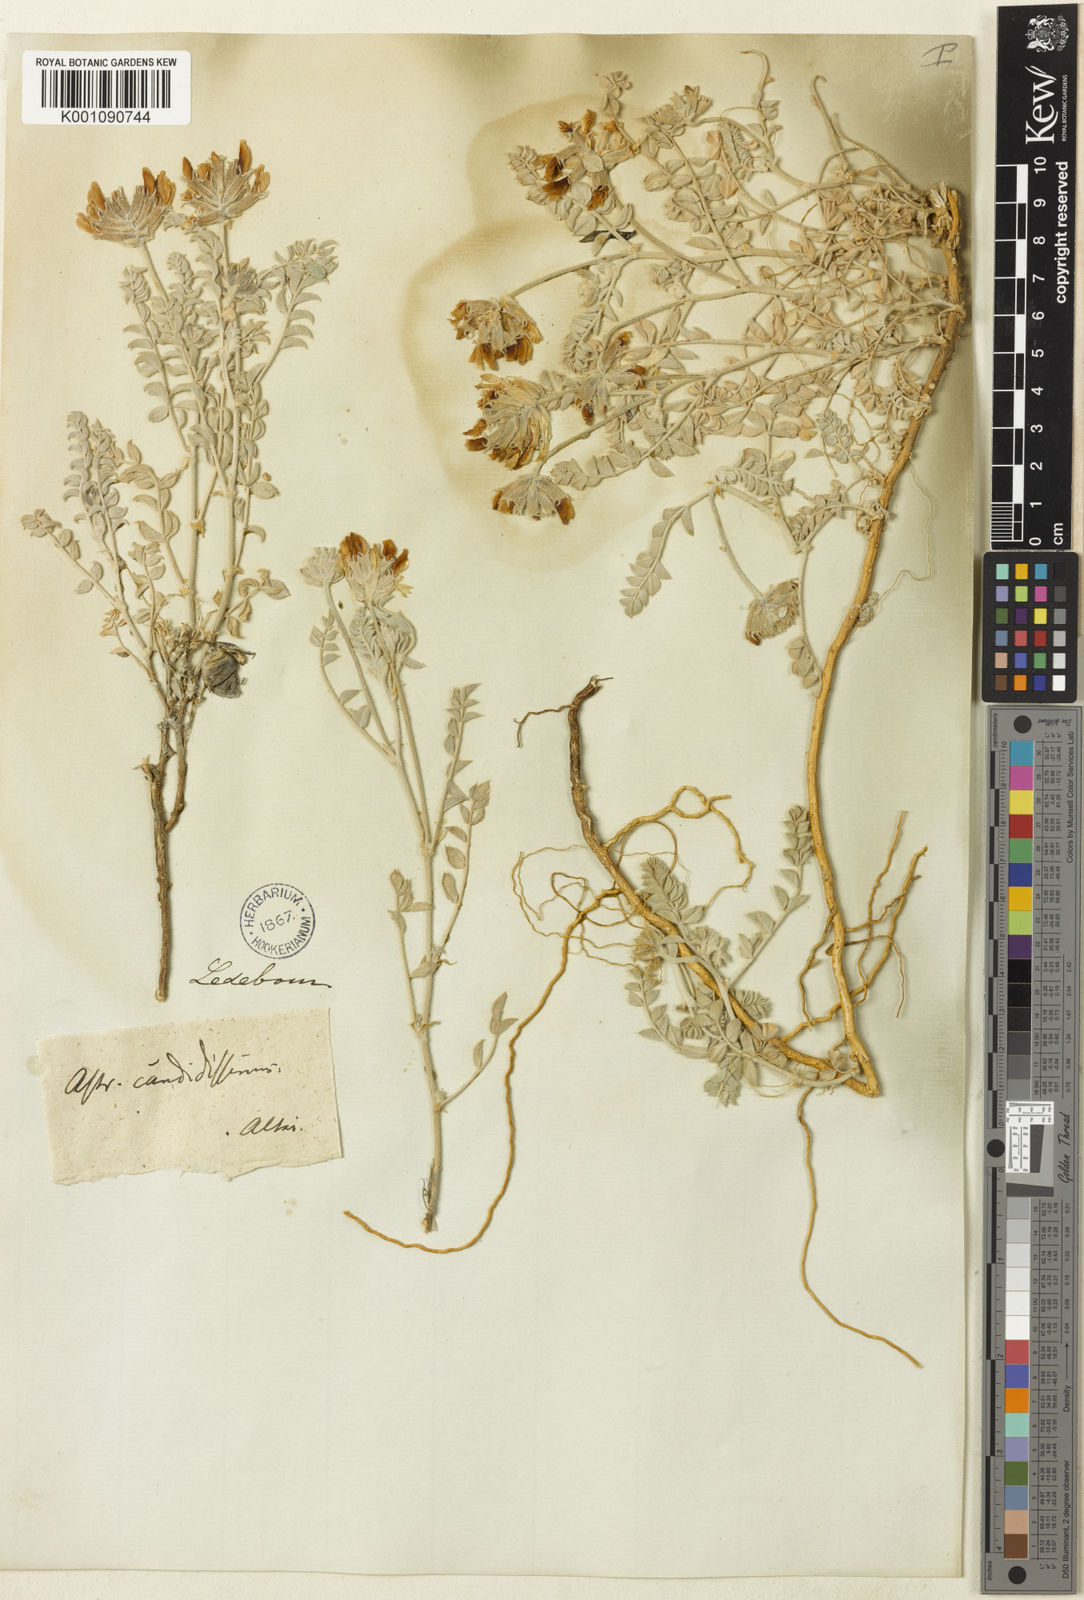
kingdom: Plantae
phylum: Tracheophyta
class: Magnoliopsida
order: Fabales
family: Fabaceae
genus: Astragalus
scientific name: Astragalus
